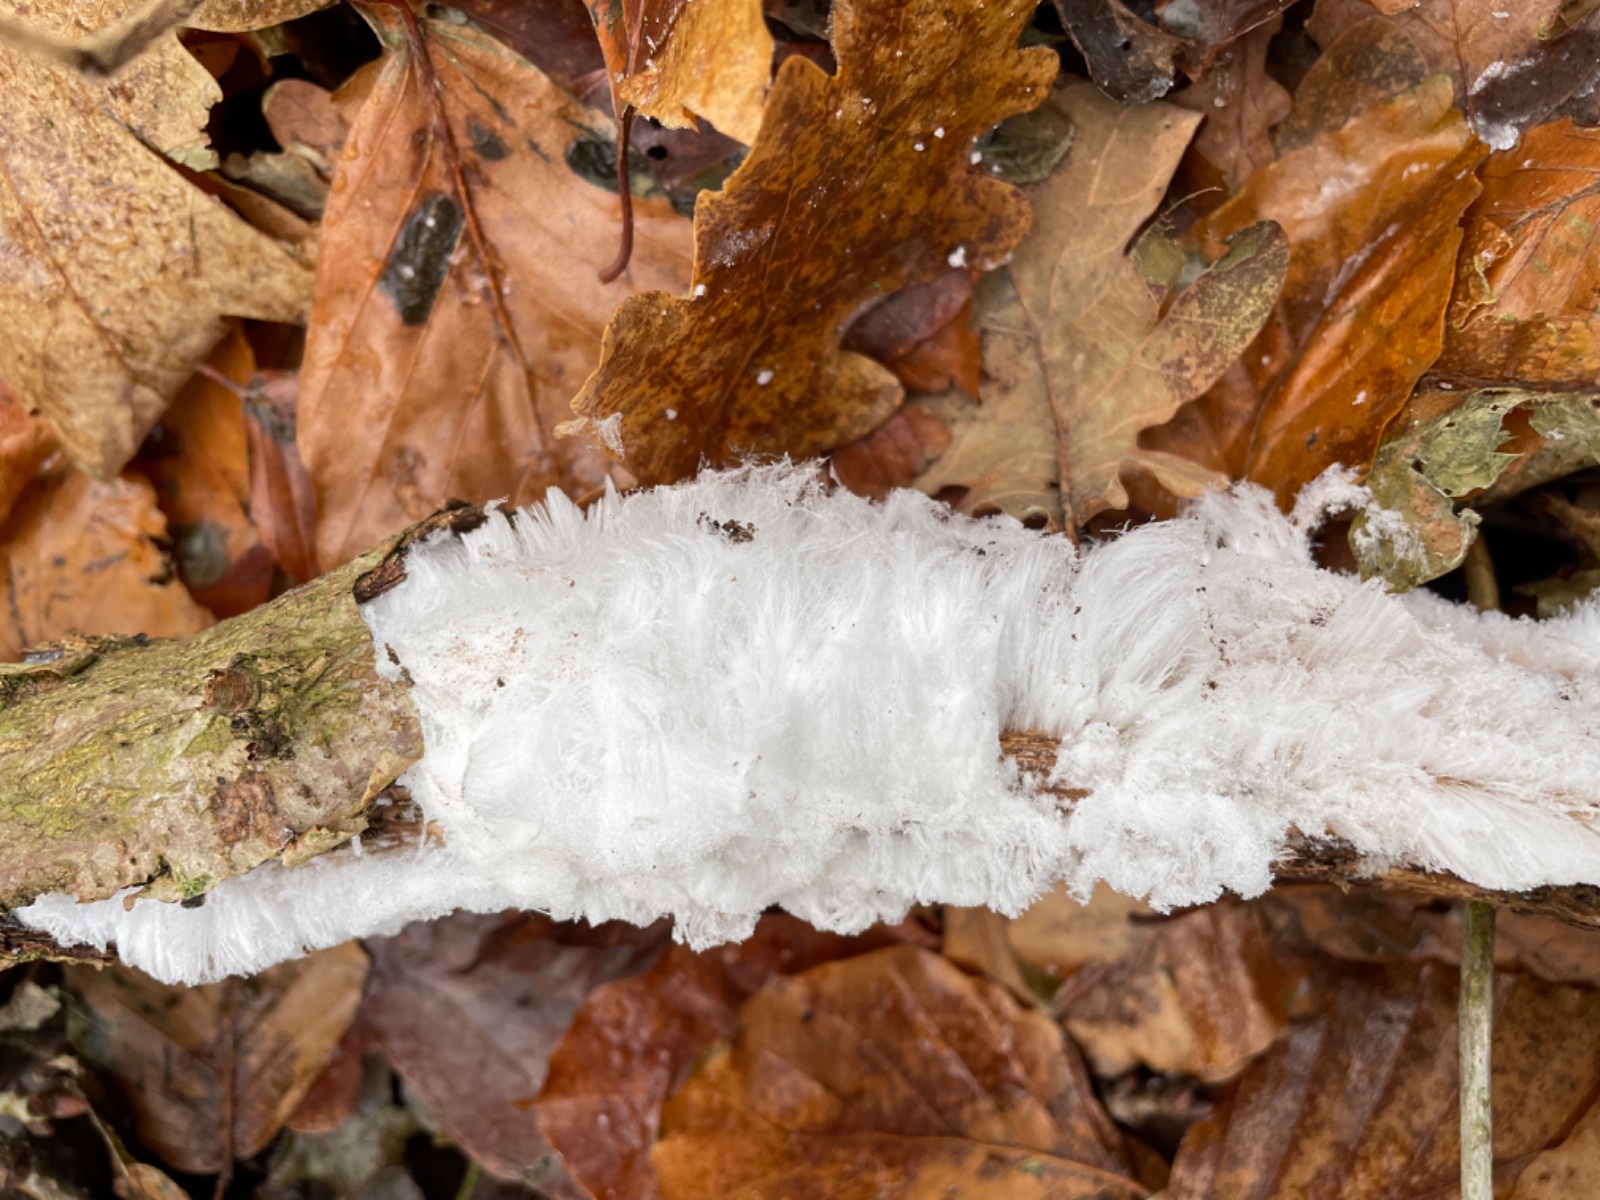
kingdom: Fungi
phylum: Basidiomycota
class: Tremellomycetes
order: Tremellales
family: Exidiaceae
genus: Exidiopsis
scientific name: Exidiopsis effusa
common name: smuk bævrehinde
